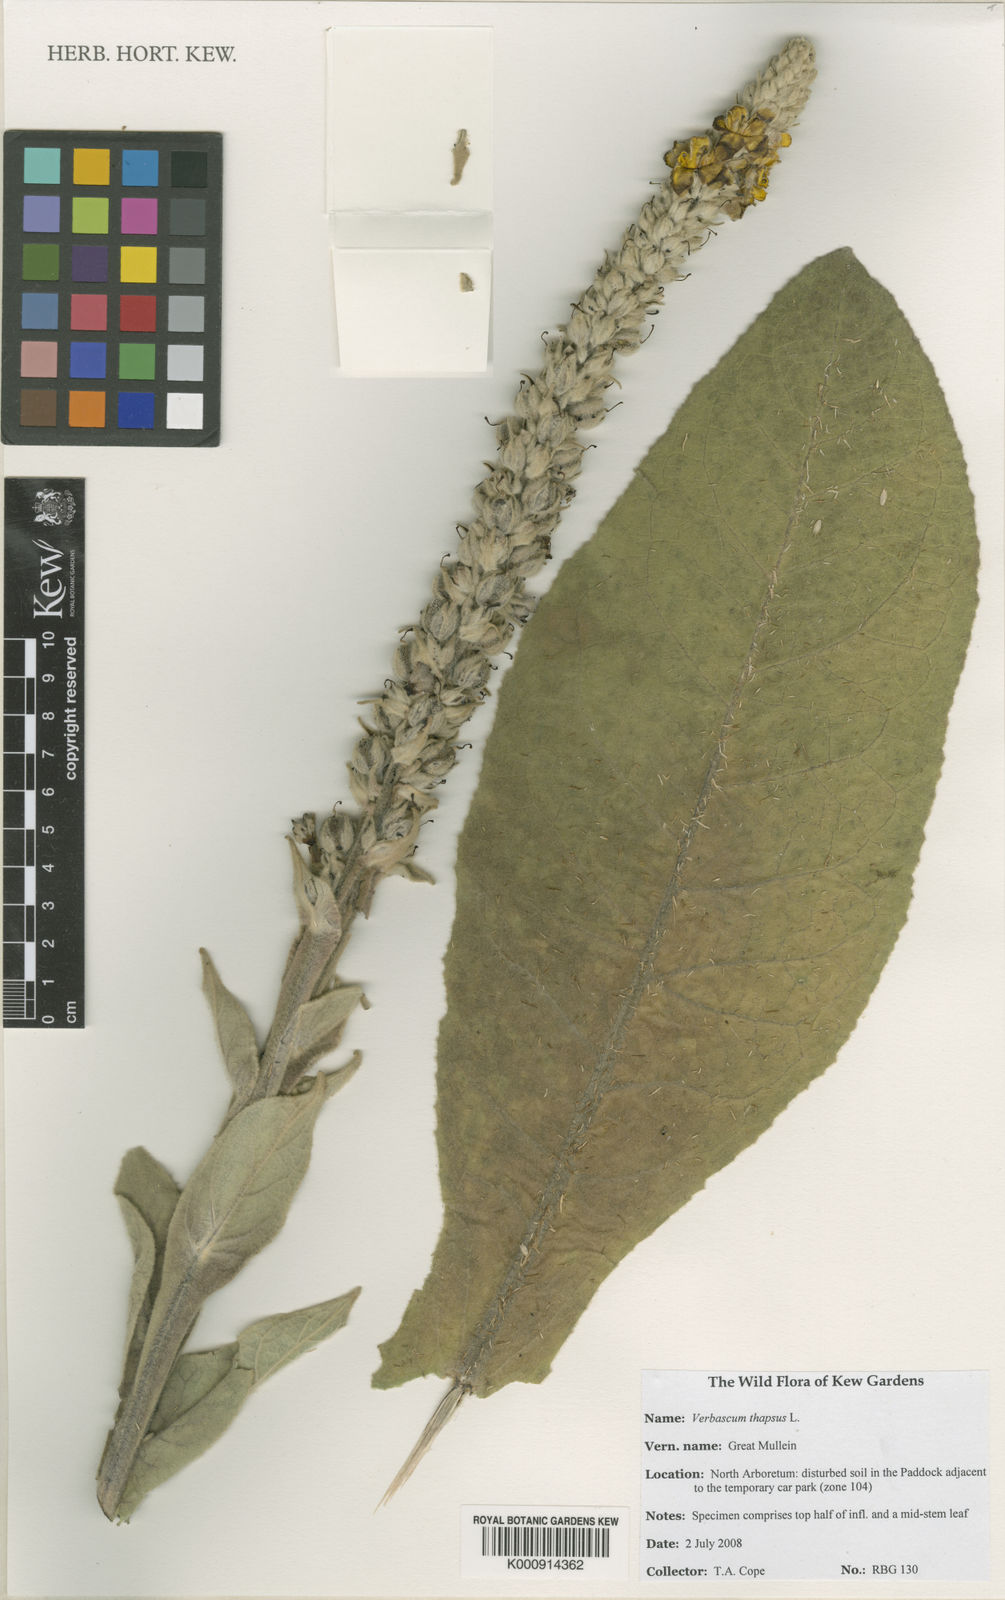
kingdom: Plantae
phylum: Tracheophyta
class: Magnoliopsida
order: Lamiales
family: Scrophulariaceae
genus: Verbascum
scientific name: Verbascum thapsus
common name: Common mullein
